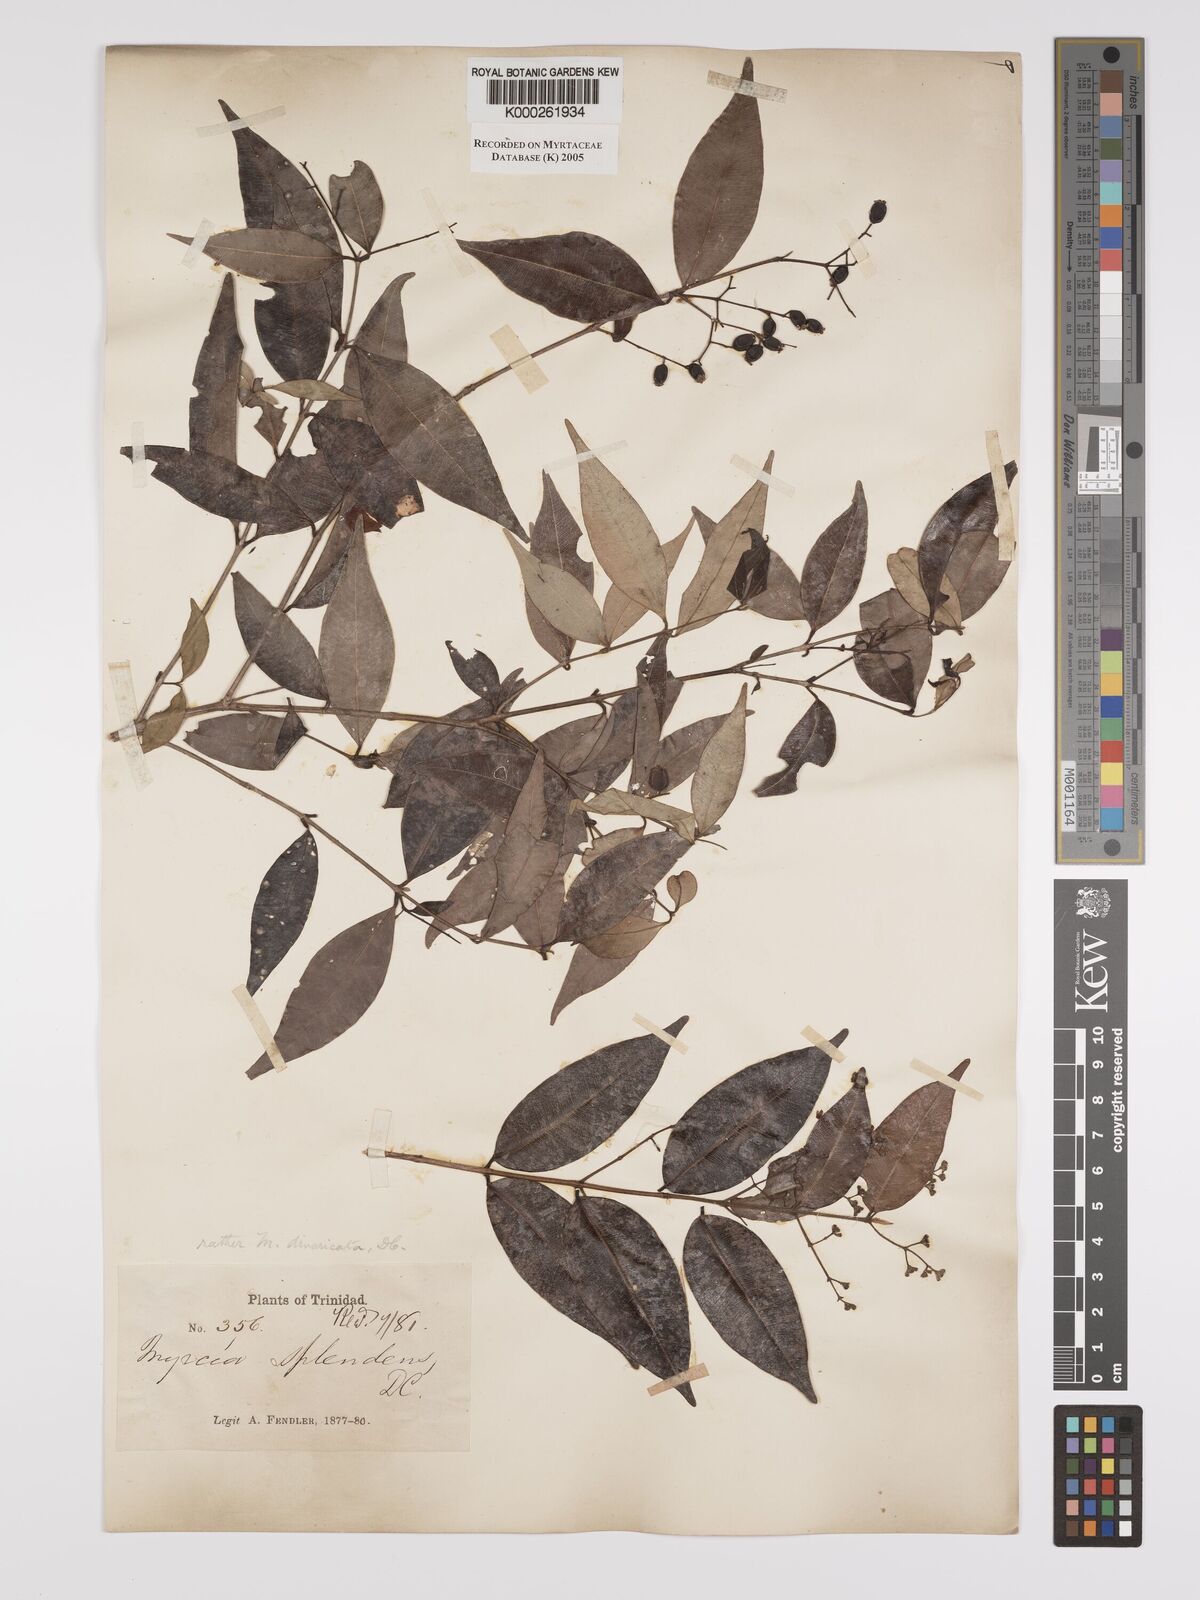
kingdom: Plantae
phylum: Tracheophyta
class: Magnoliopsida
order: Myrtales
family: Myrtaceae
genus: Myrcia
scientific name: Myrcia splendens
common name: Surinam cherry
